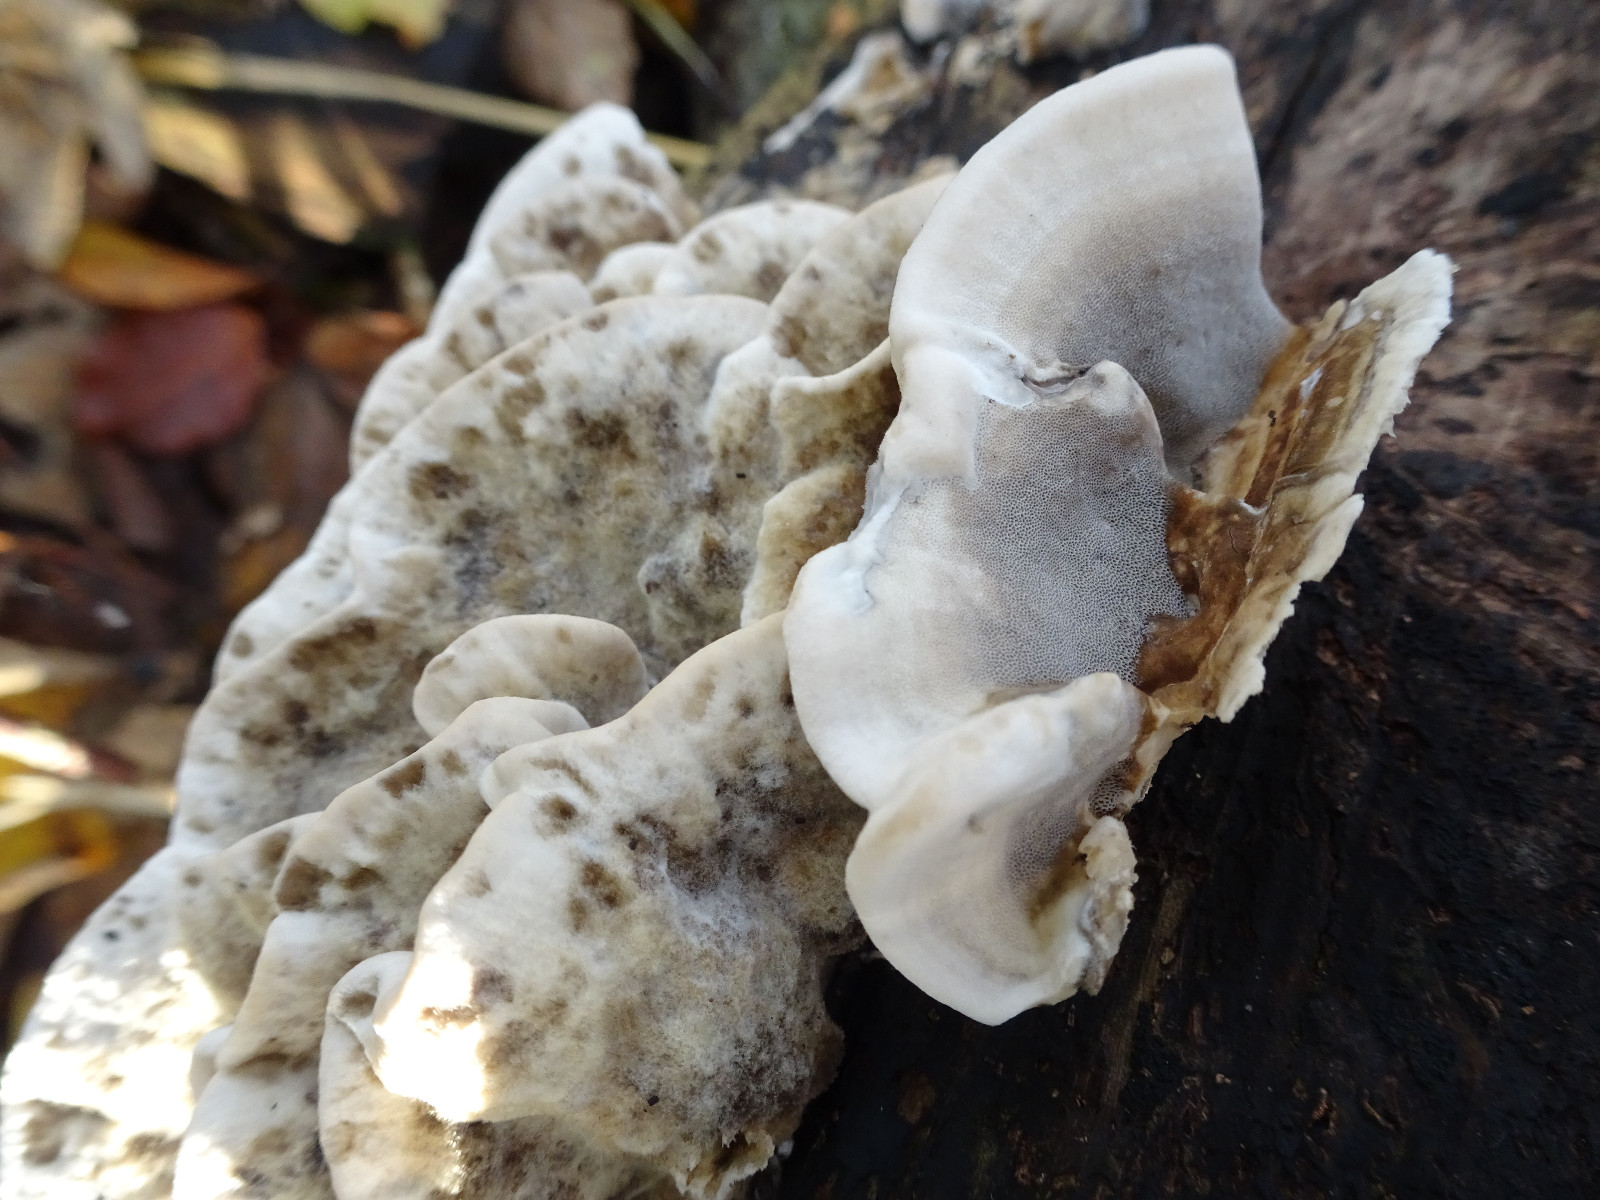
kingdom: Fungi
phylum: Basidiomycota
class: Agaricomycetes
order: Polyporales
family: Phanerochaetaceae
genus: Bjerkandera
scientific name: Bjerkandera adusta
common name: sveden sodporesvamp
